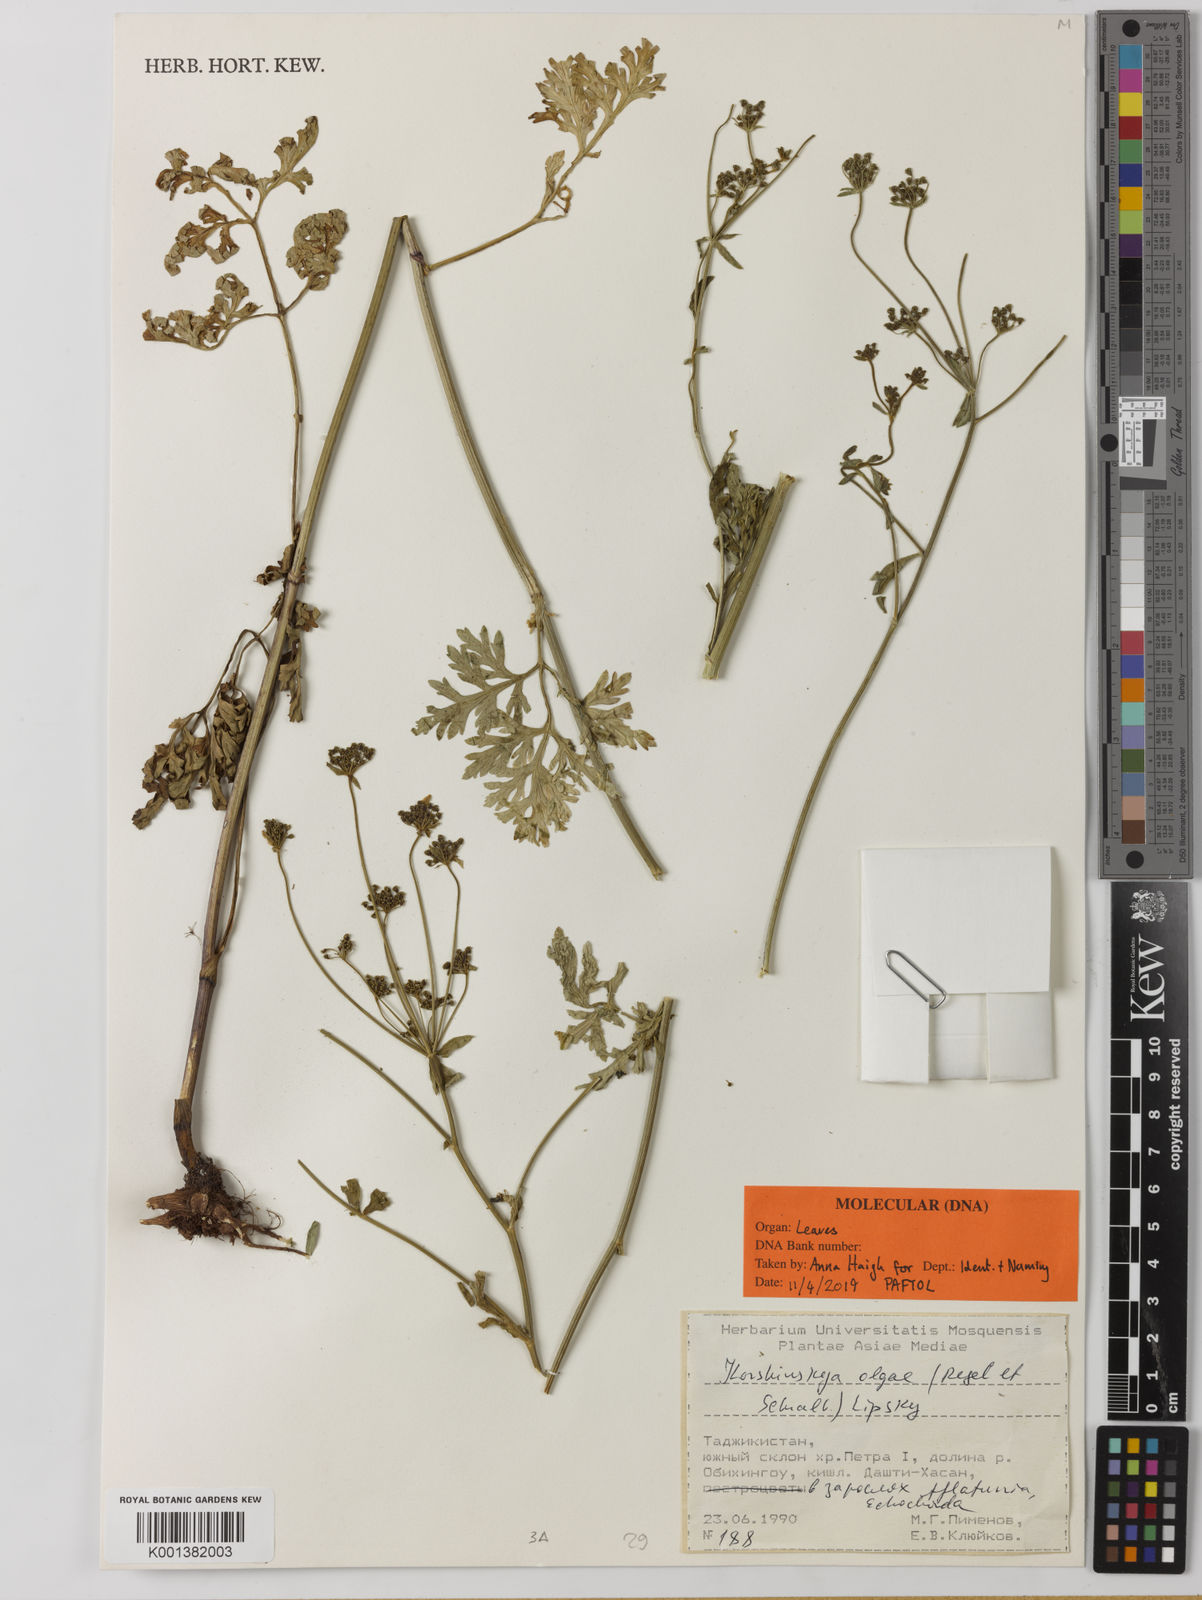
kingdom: Plantae
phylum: Tracheophyta
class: Magnoliopsida
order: Apiales
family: Apiaceae
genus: Korshinskia
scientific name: Korshinskia olgae
